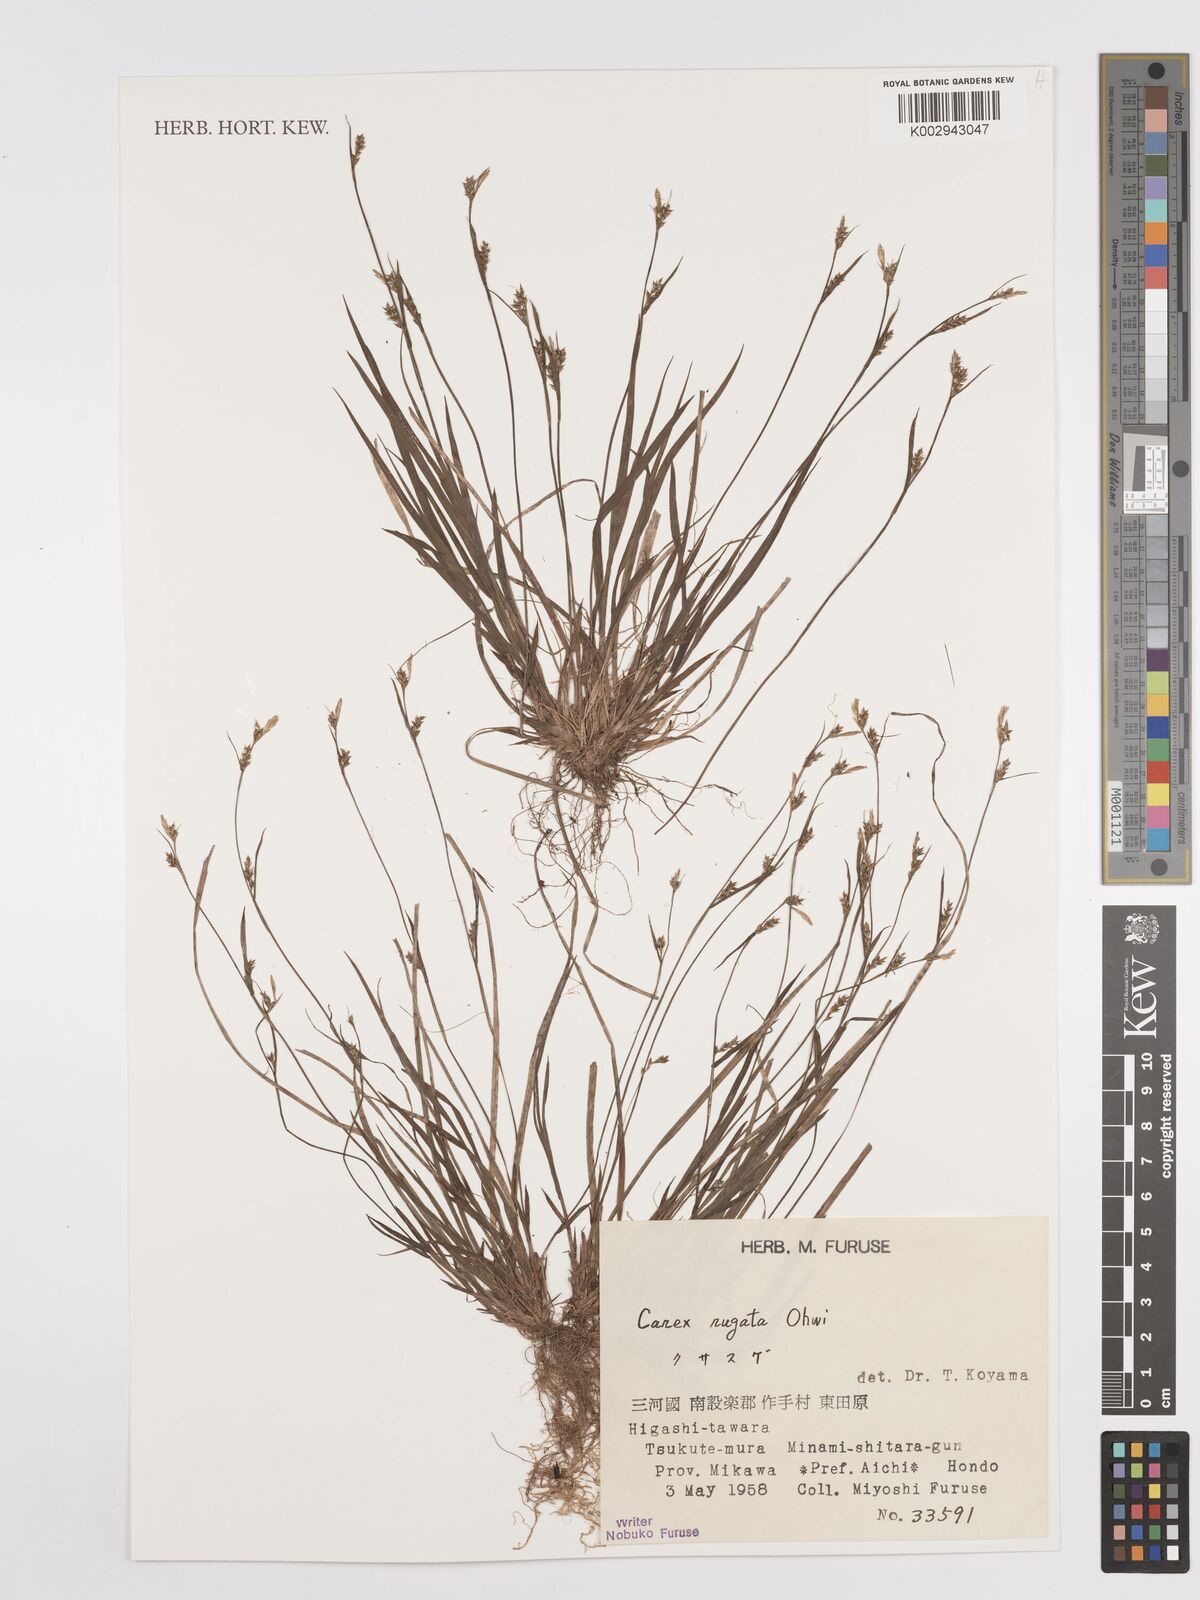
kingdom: Plantae
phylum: Tracheophyta
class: Liliopsida
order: Poales
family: Cyperaceae
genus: Carex
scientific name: Carex rugata
